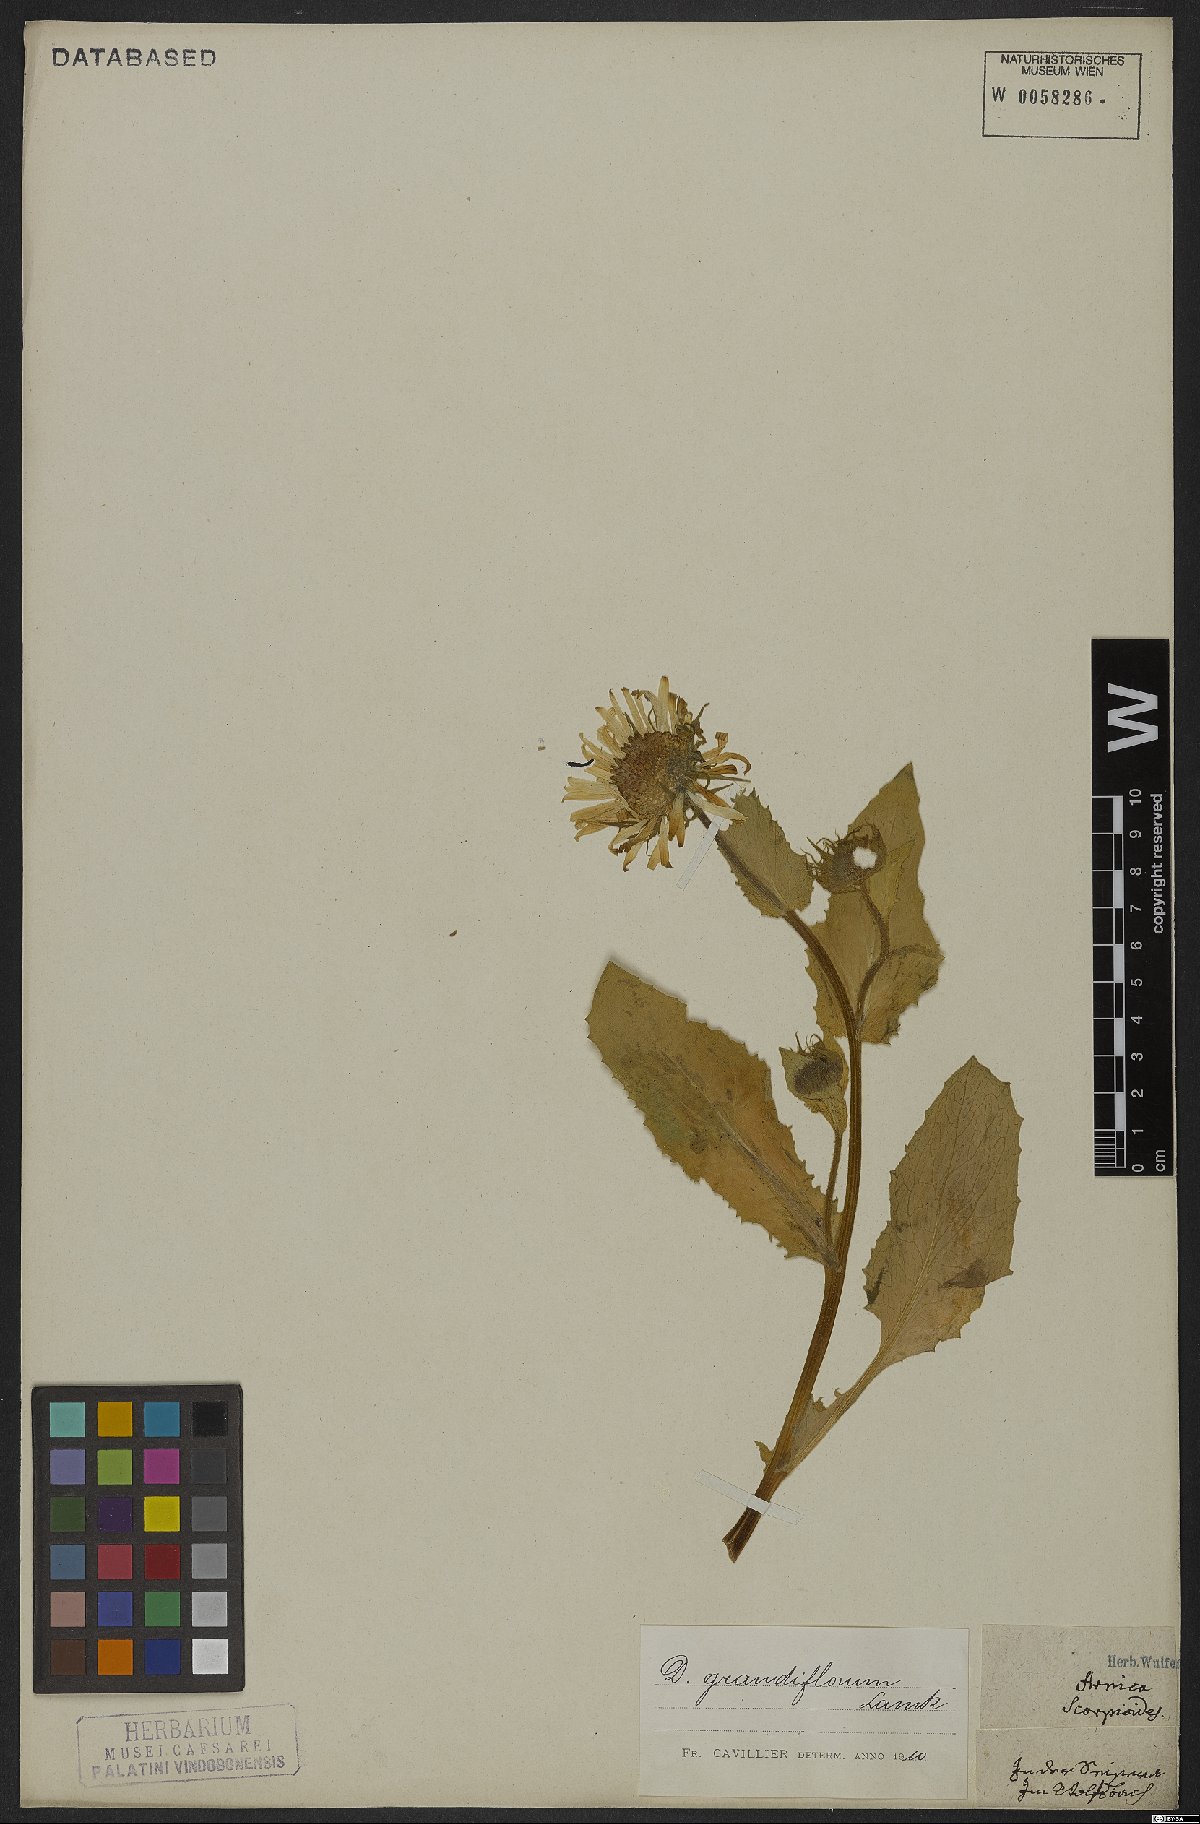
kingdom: Plantae
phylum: Tracheophyta
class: Magnoliopsida
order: Asterales
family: Asteraceae
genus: Doronicum
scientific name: Doronicum grandiflorum
